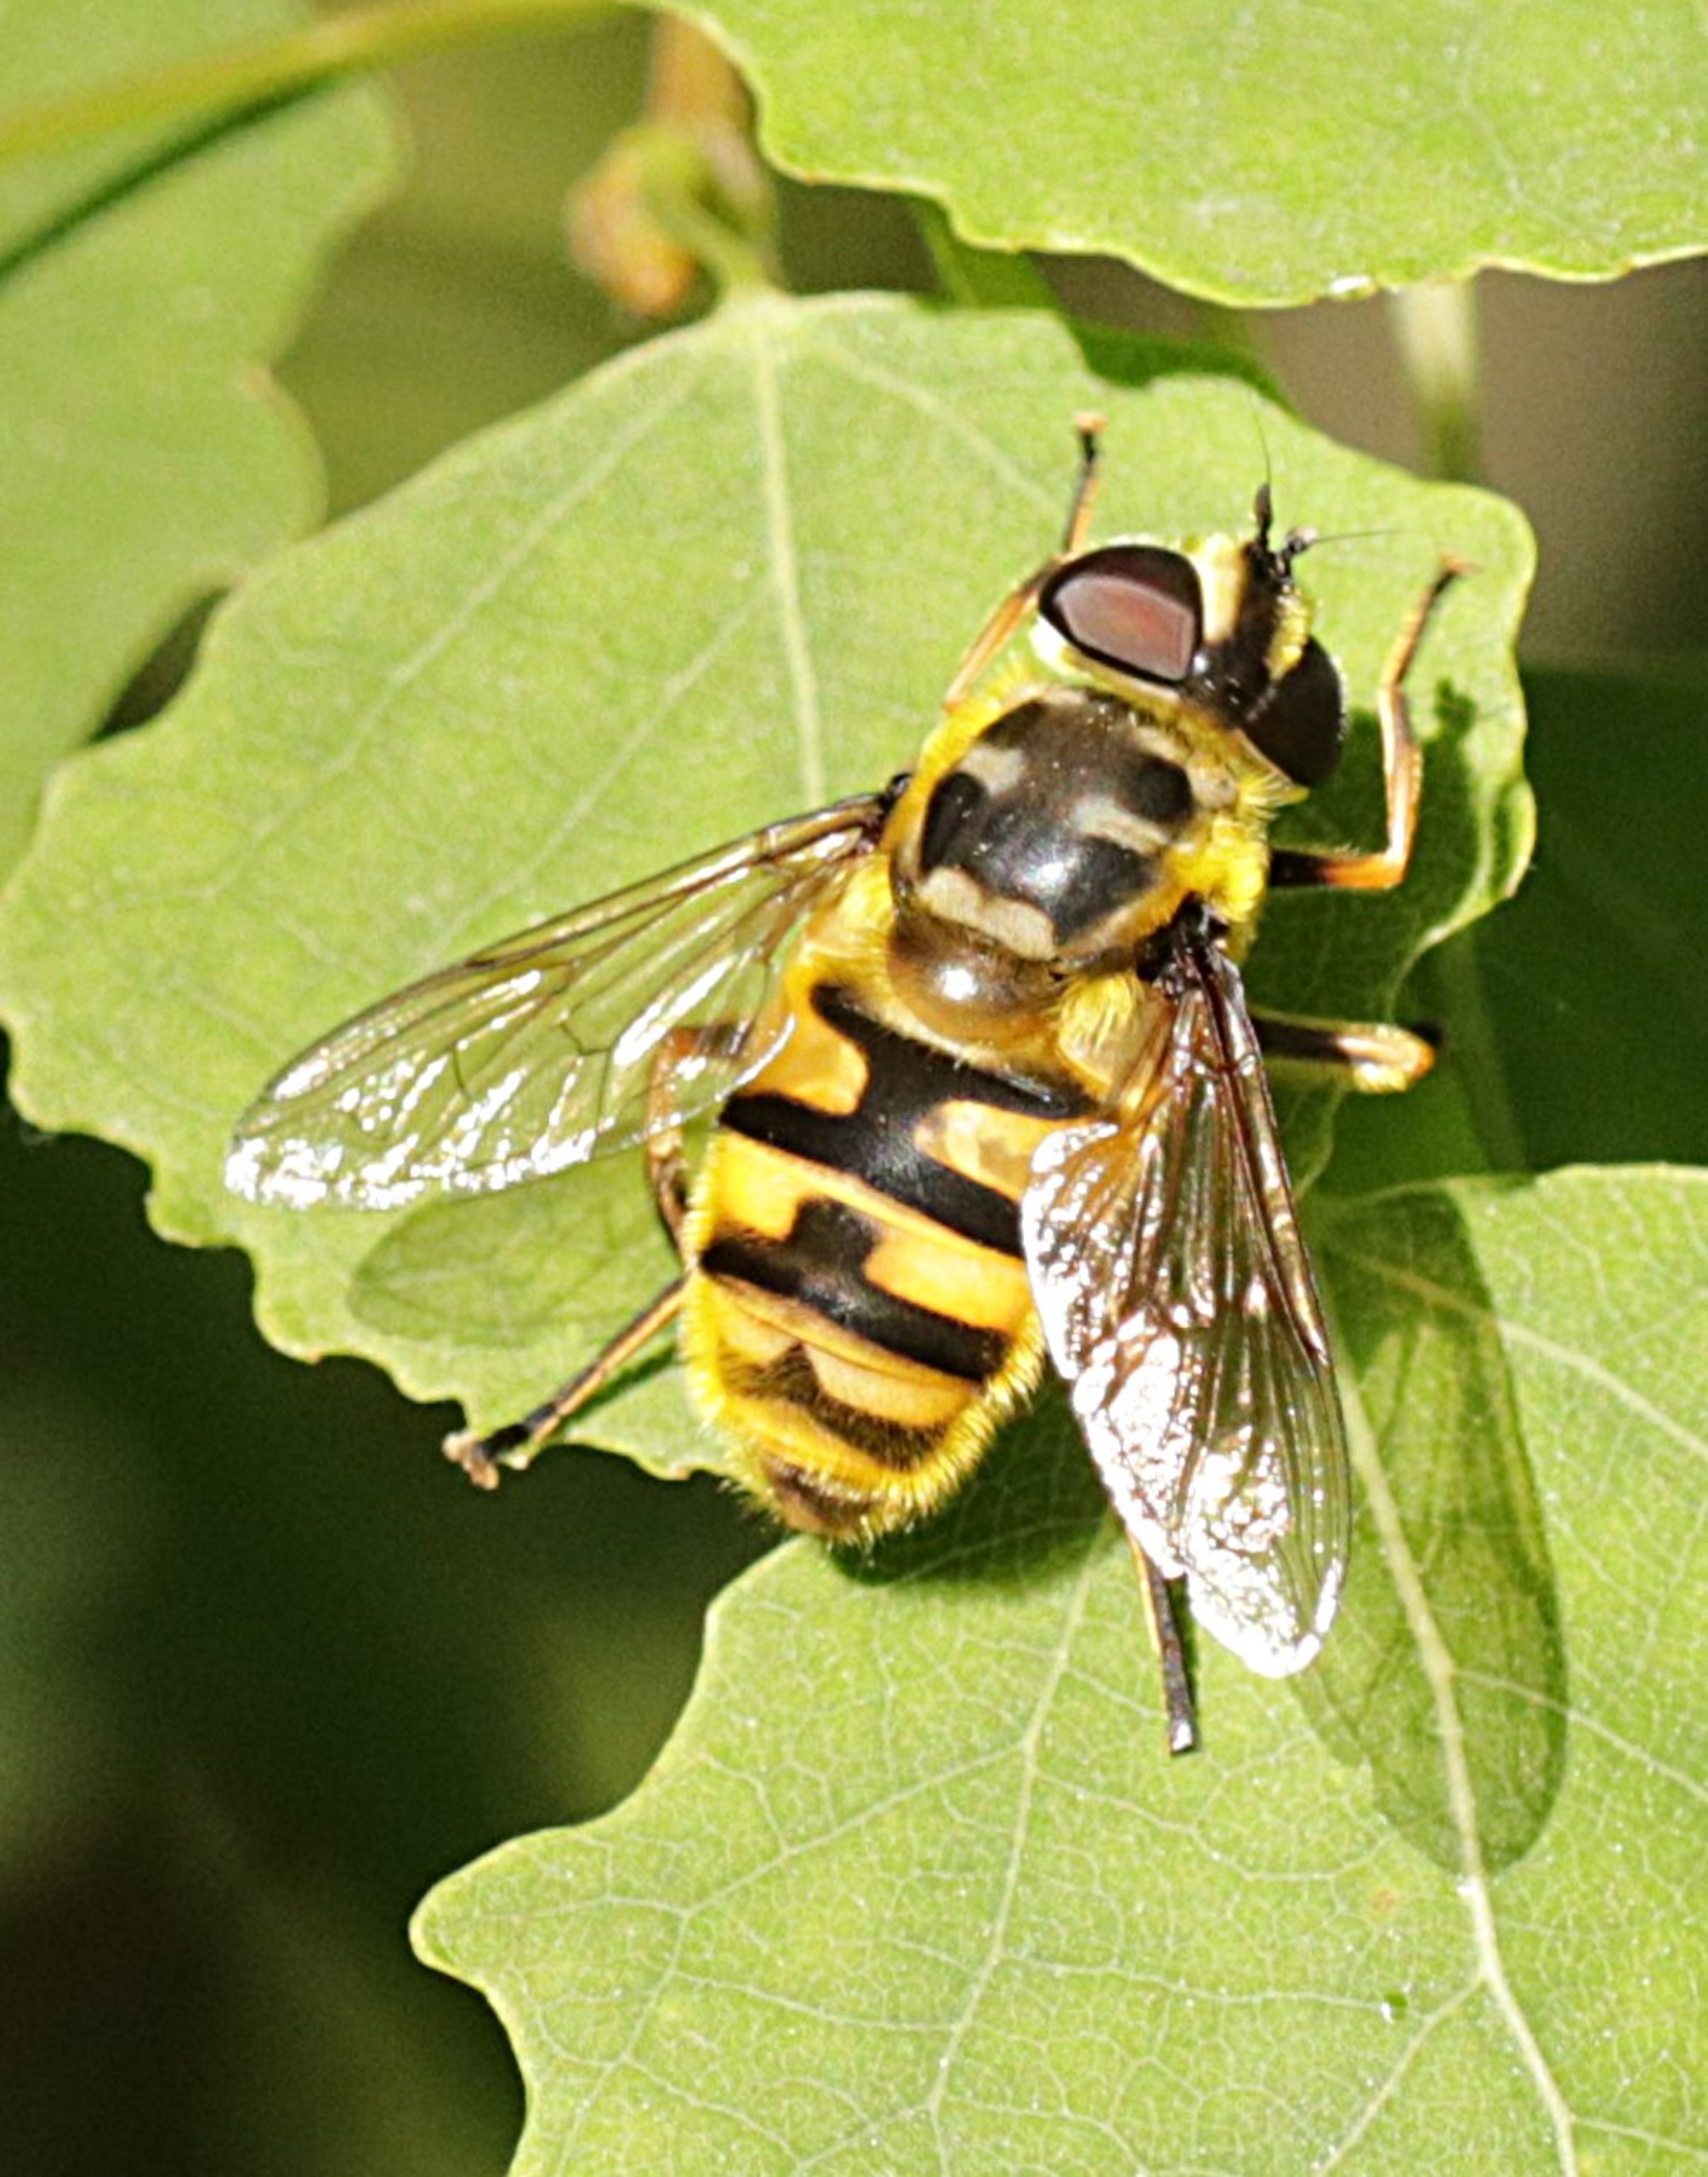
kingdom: Animalia
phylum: Arthropoda
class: Insecta
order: Diptera
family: Syrphidae
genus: Myathropa
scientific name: Myathropa florea
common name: Dødningehoved-svirreflue
